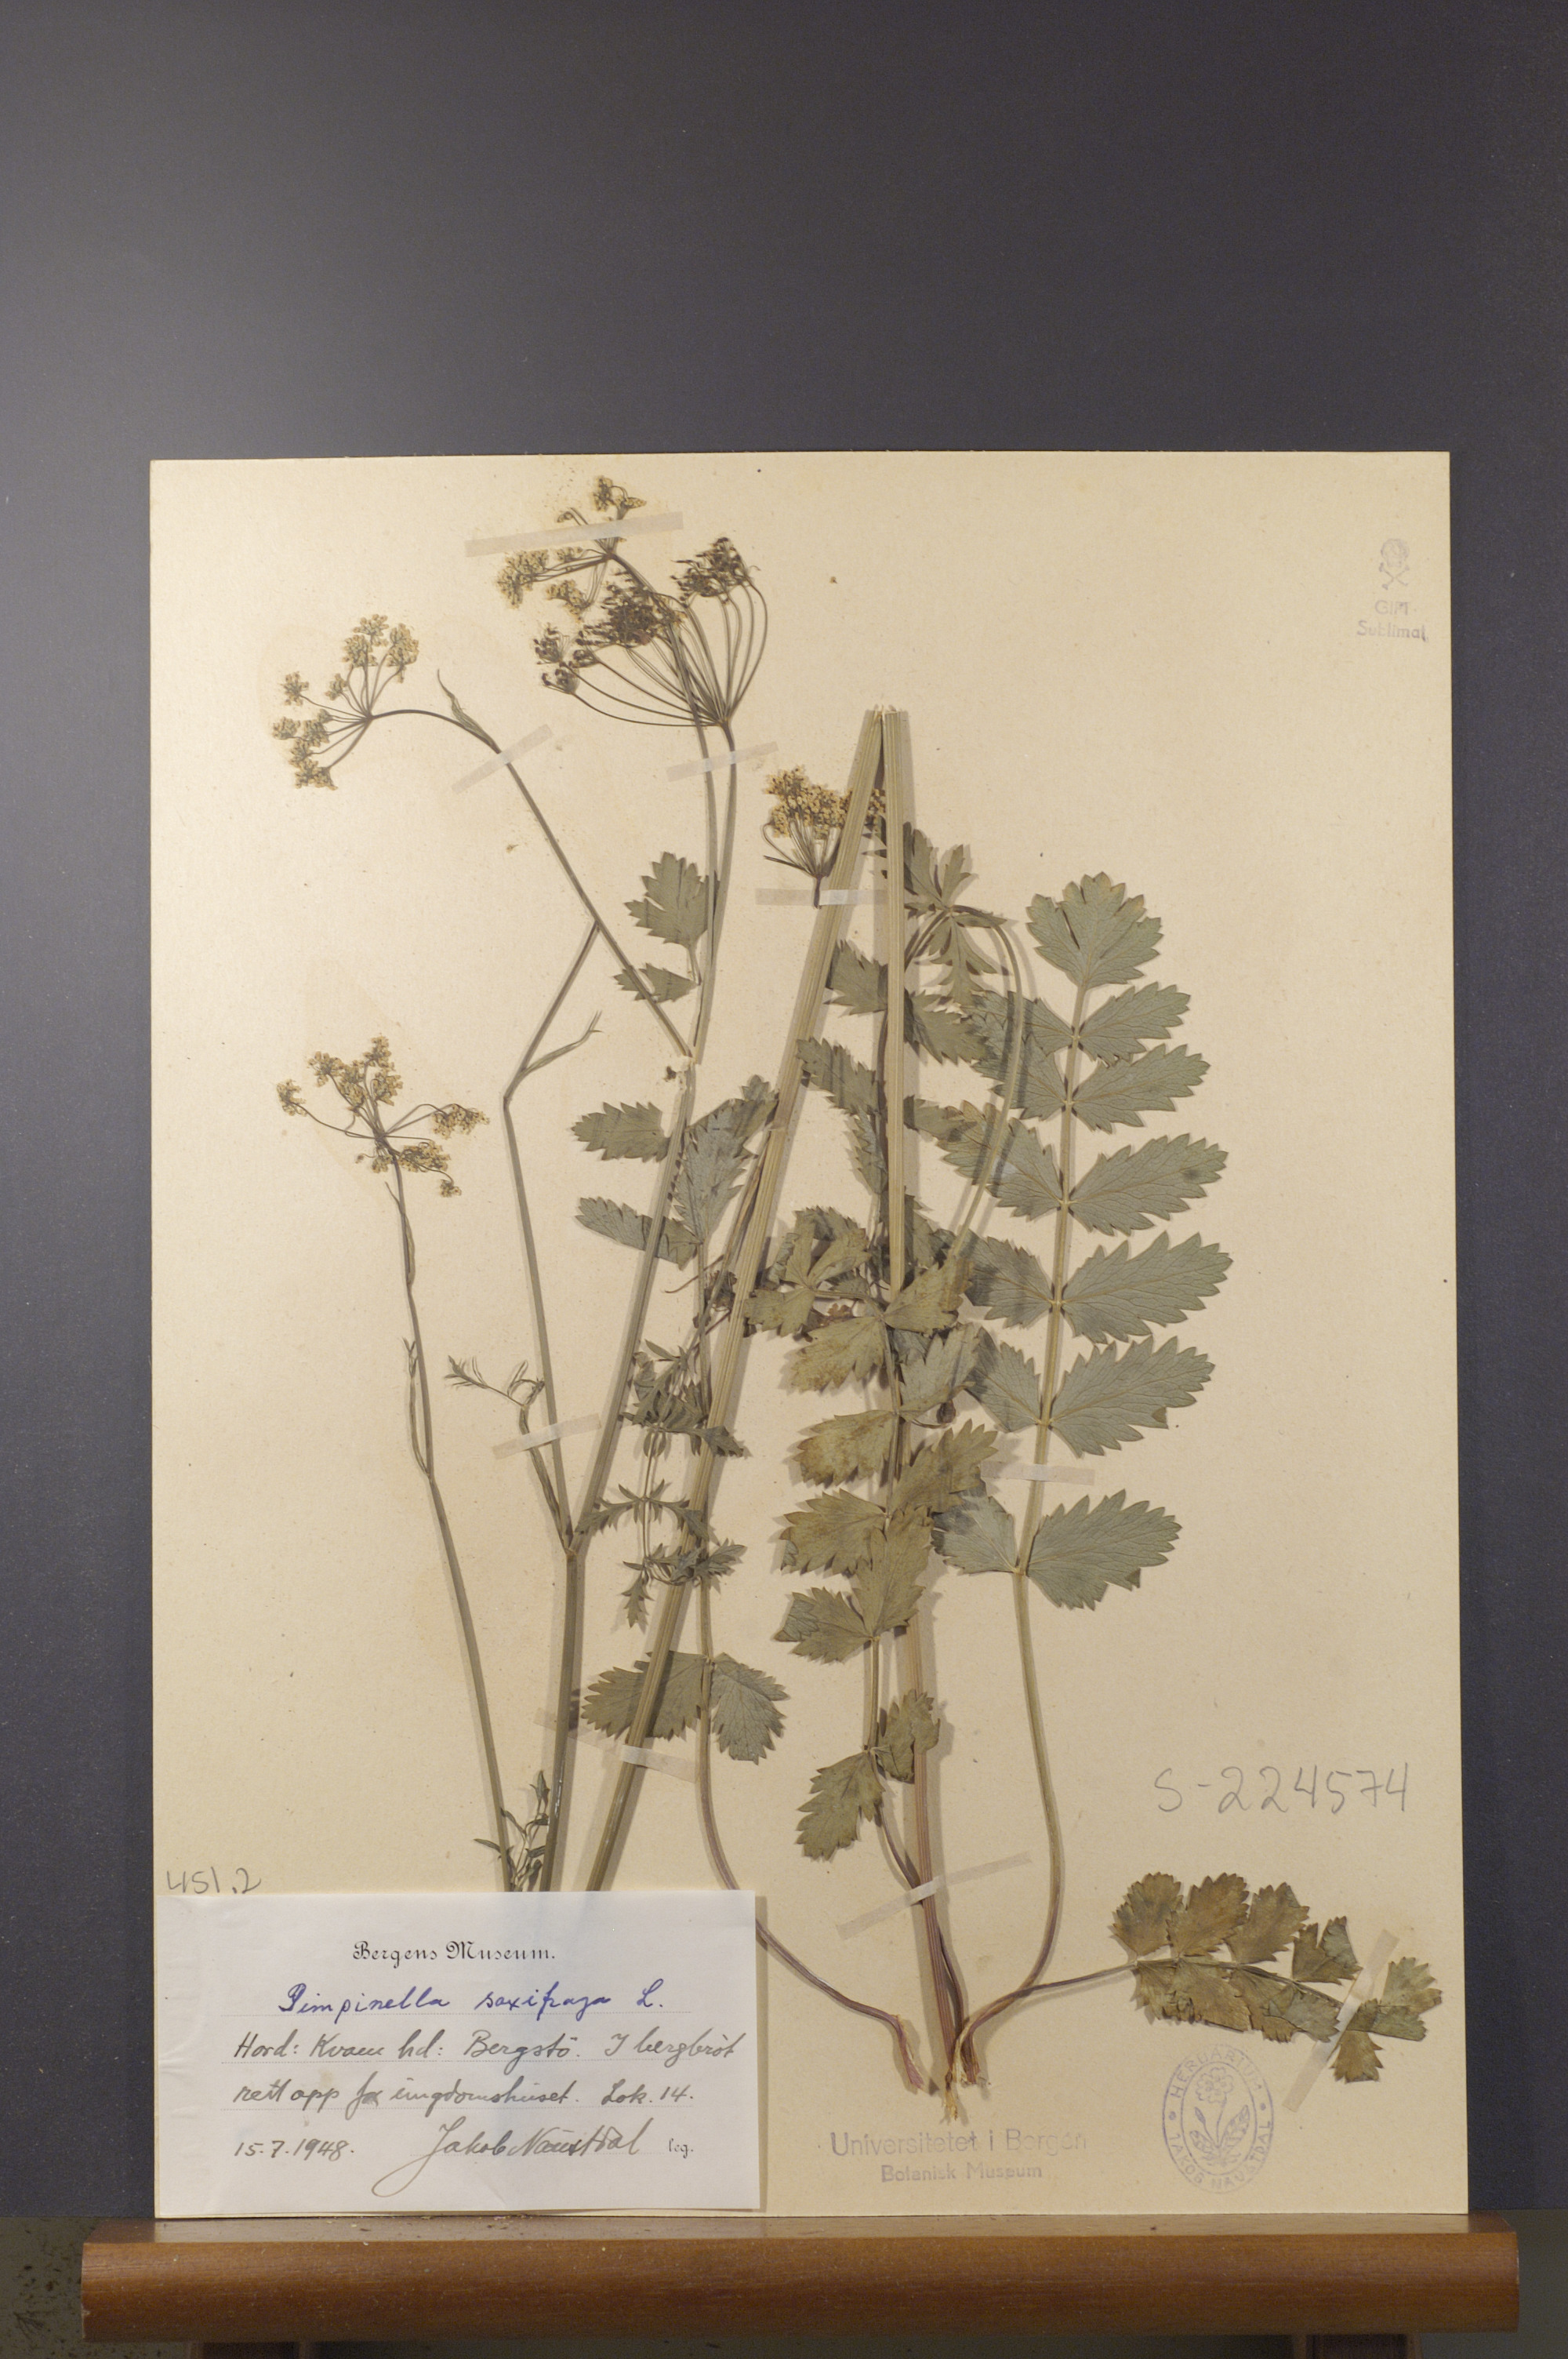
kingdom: Plantae
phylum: Tracheophyta
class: Magnoliopsida
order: Apiales
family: Apiaceae
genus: Pimpinella
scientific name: Pimpinella saxifraga
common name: Burnet-saxifrage
